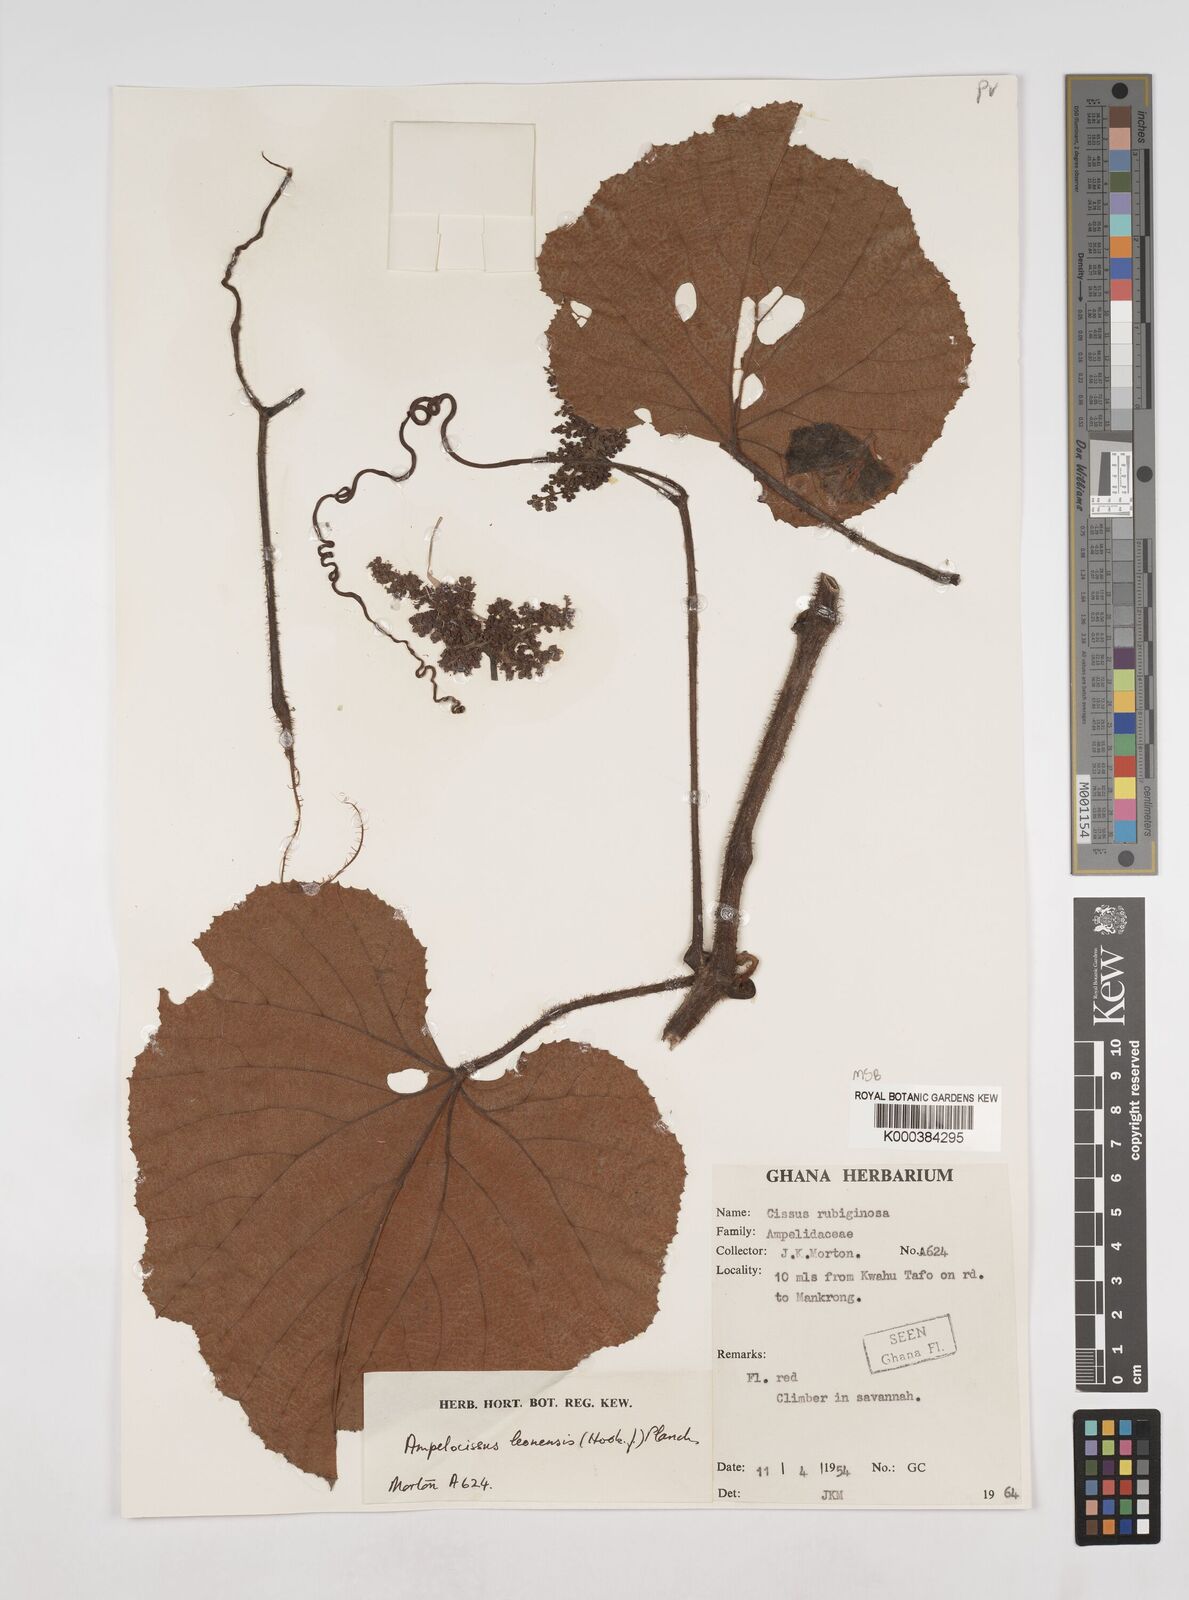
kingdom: Plantae
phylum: Tracheophyta
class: Magnoliopsida
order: Vitales
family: Vitaceae
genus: Ampelocissus
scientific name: Ampelocissus leonensis
